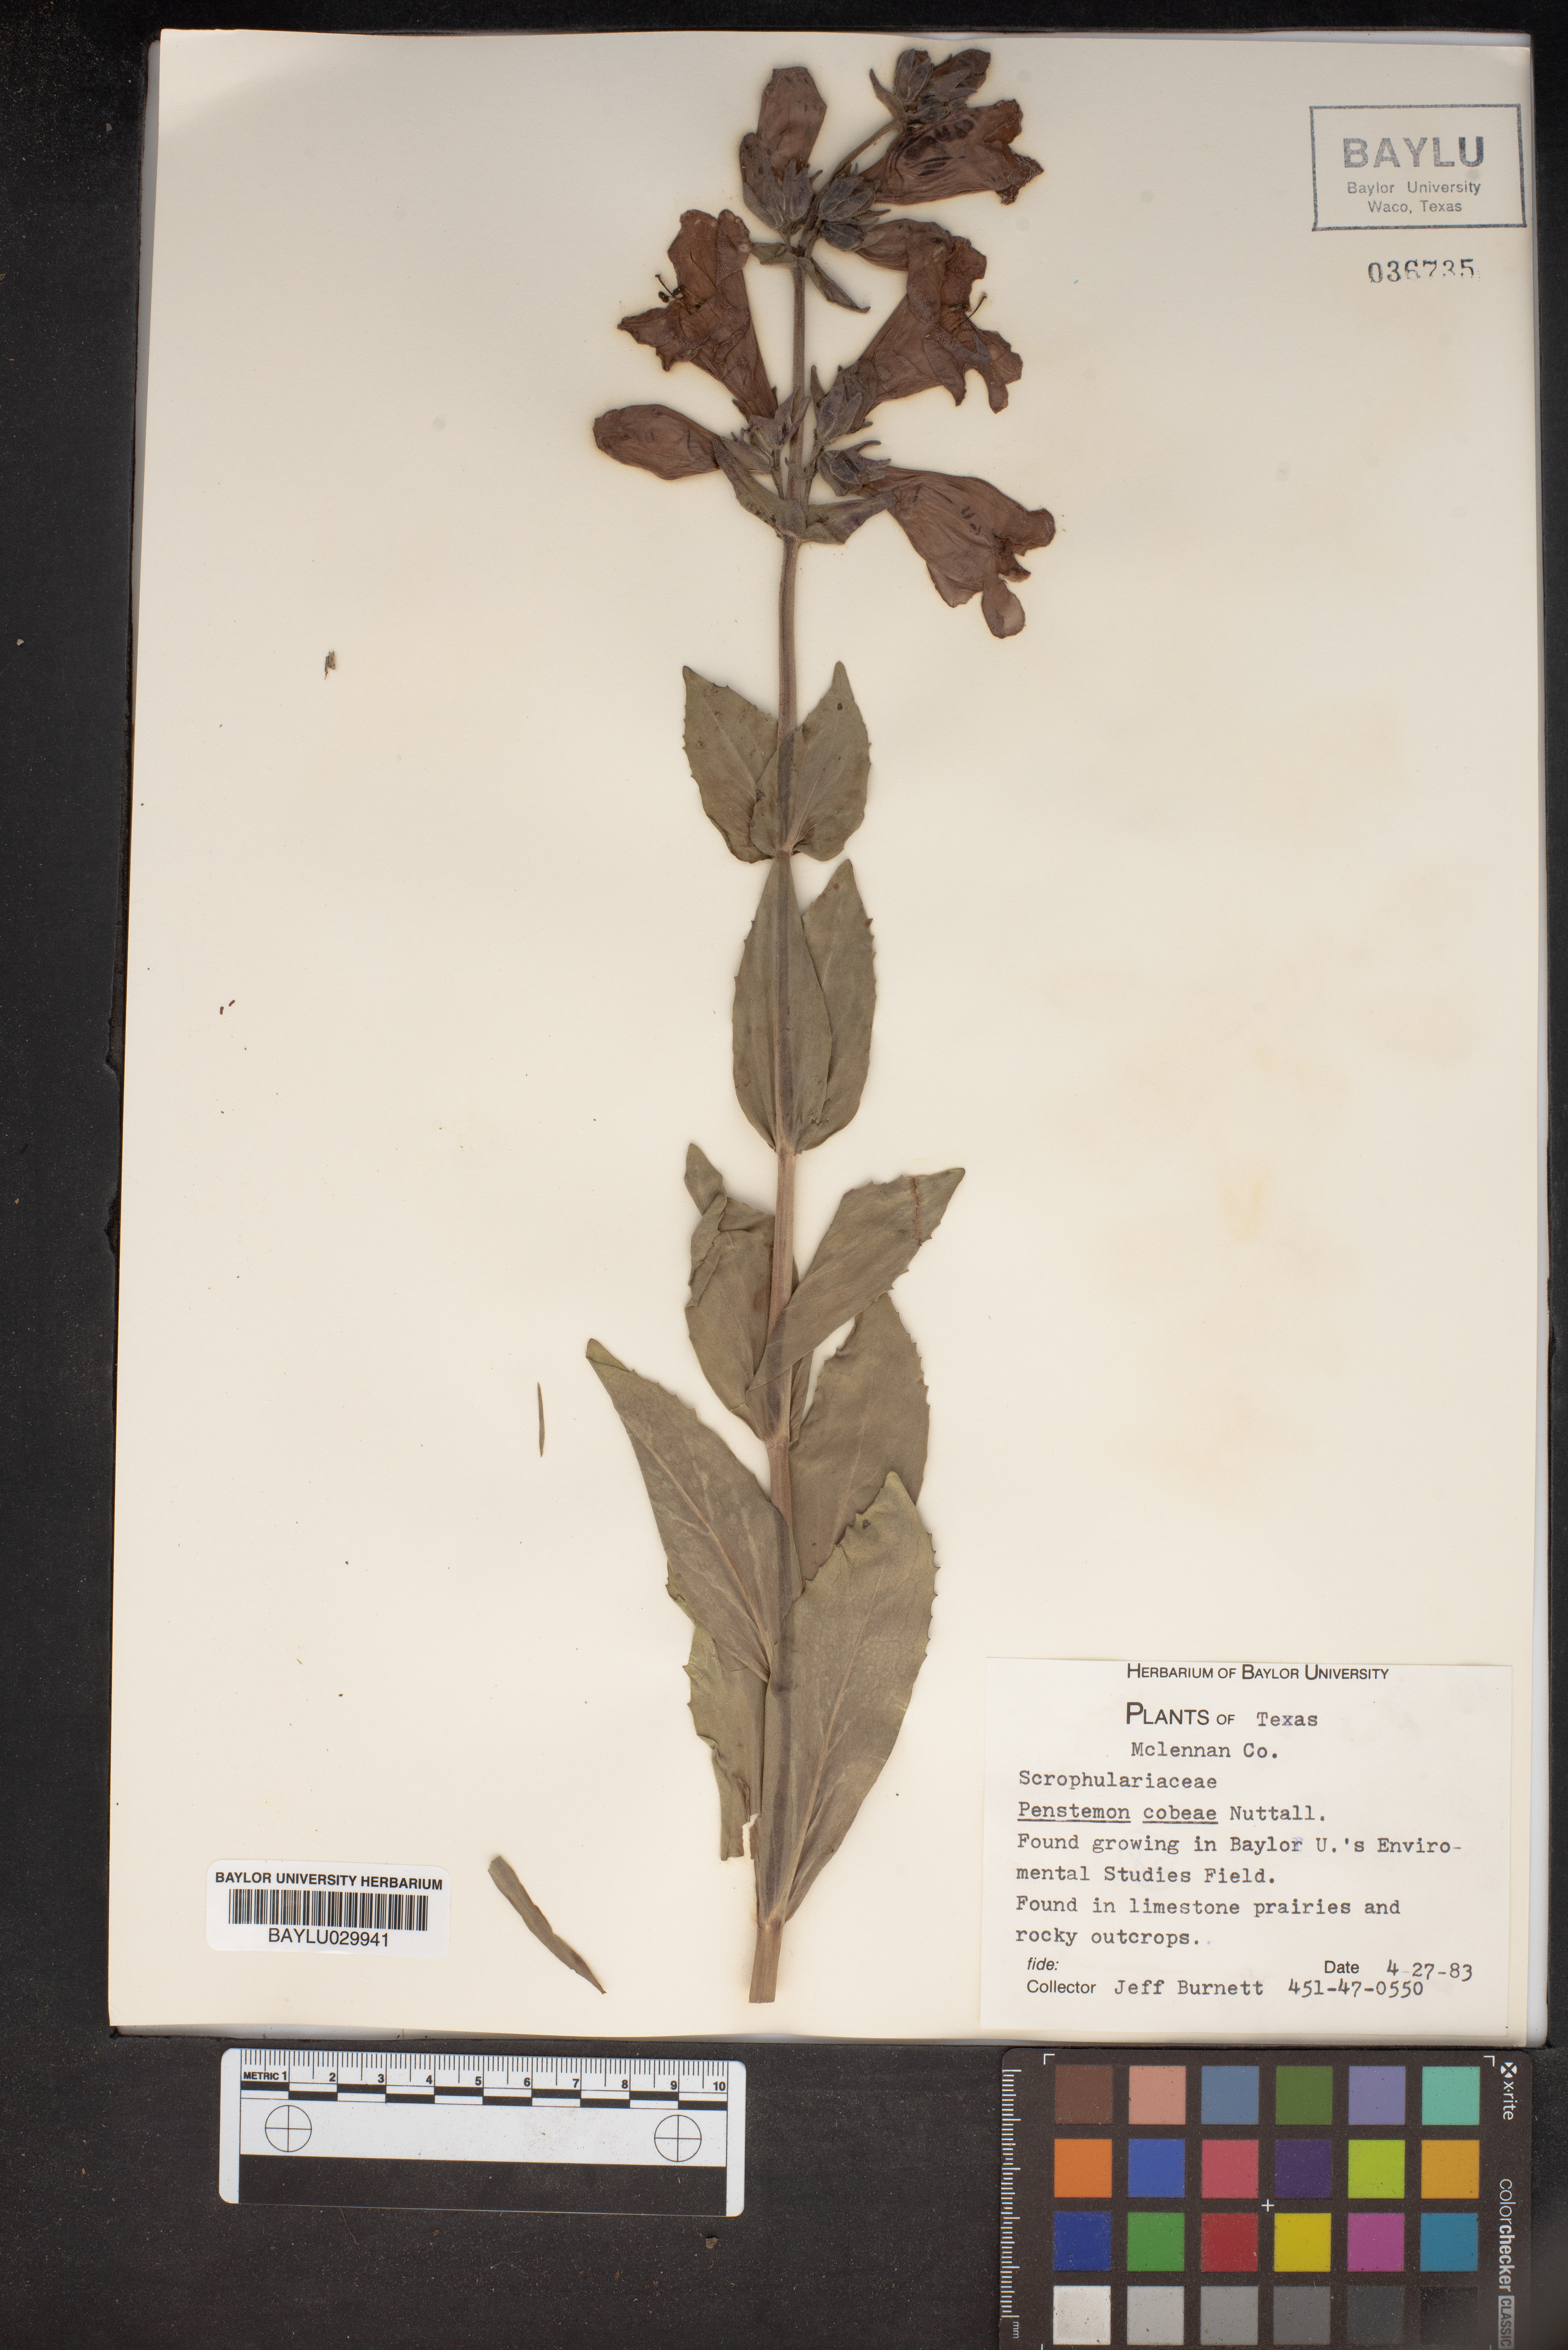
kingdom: Plantae
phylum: Tracheophyta
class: Magnoliopsida
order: Lamiales
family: Plantaginaceae
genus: Penstemon
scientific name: Penstemon cobaea
